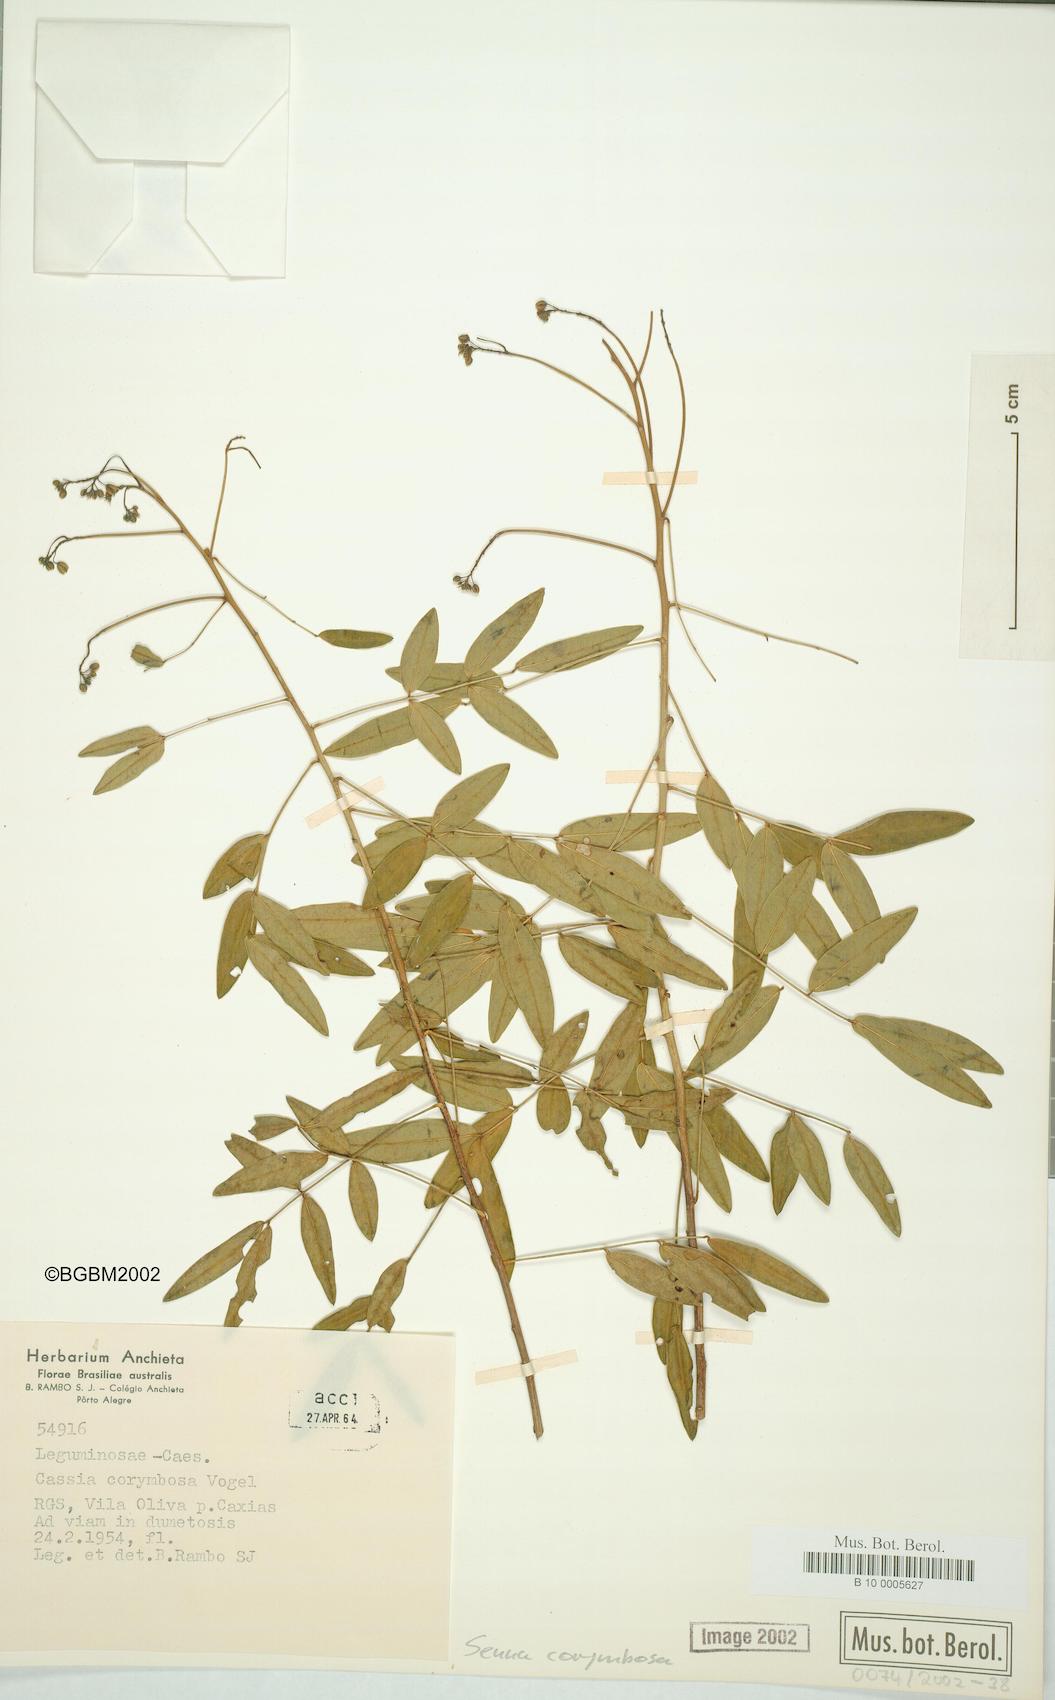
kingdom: Plantae
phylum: Tracheophyta
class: Magnoliopsida
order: Fabales
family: Fabaceae
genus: Senna
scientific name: Senna corymbosa
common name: Argentine senna
